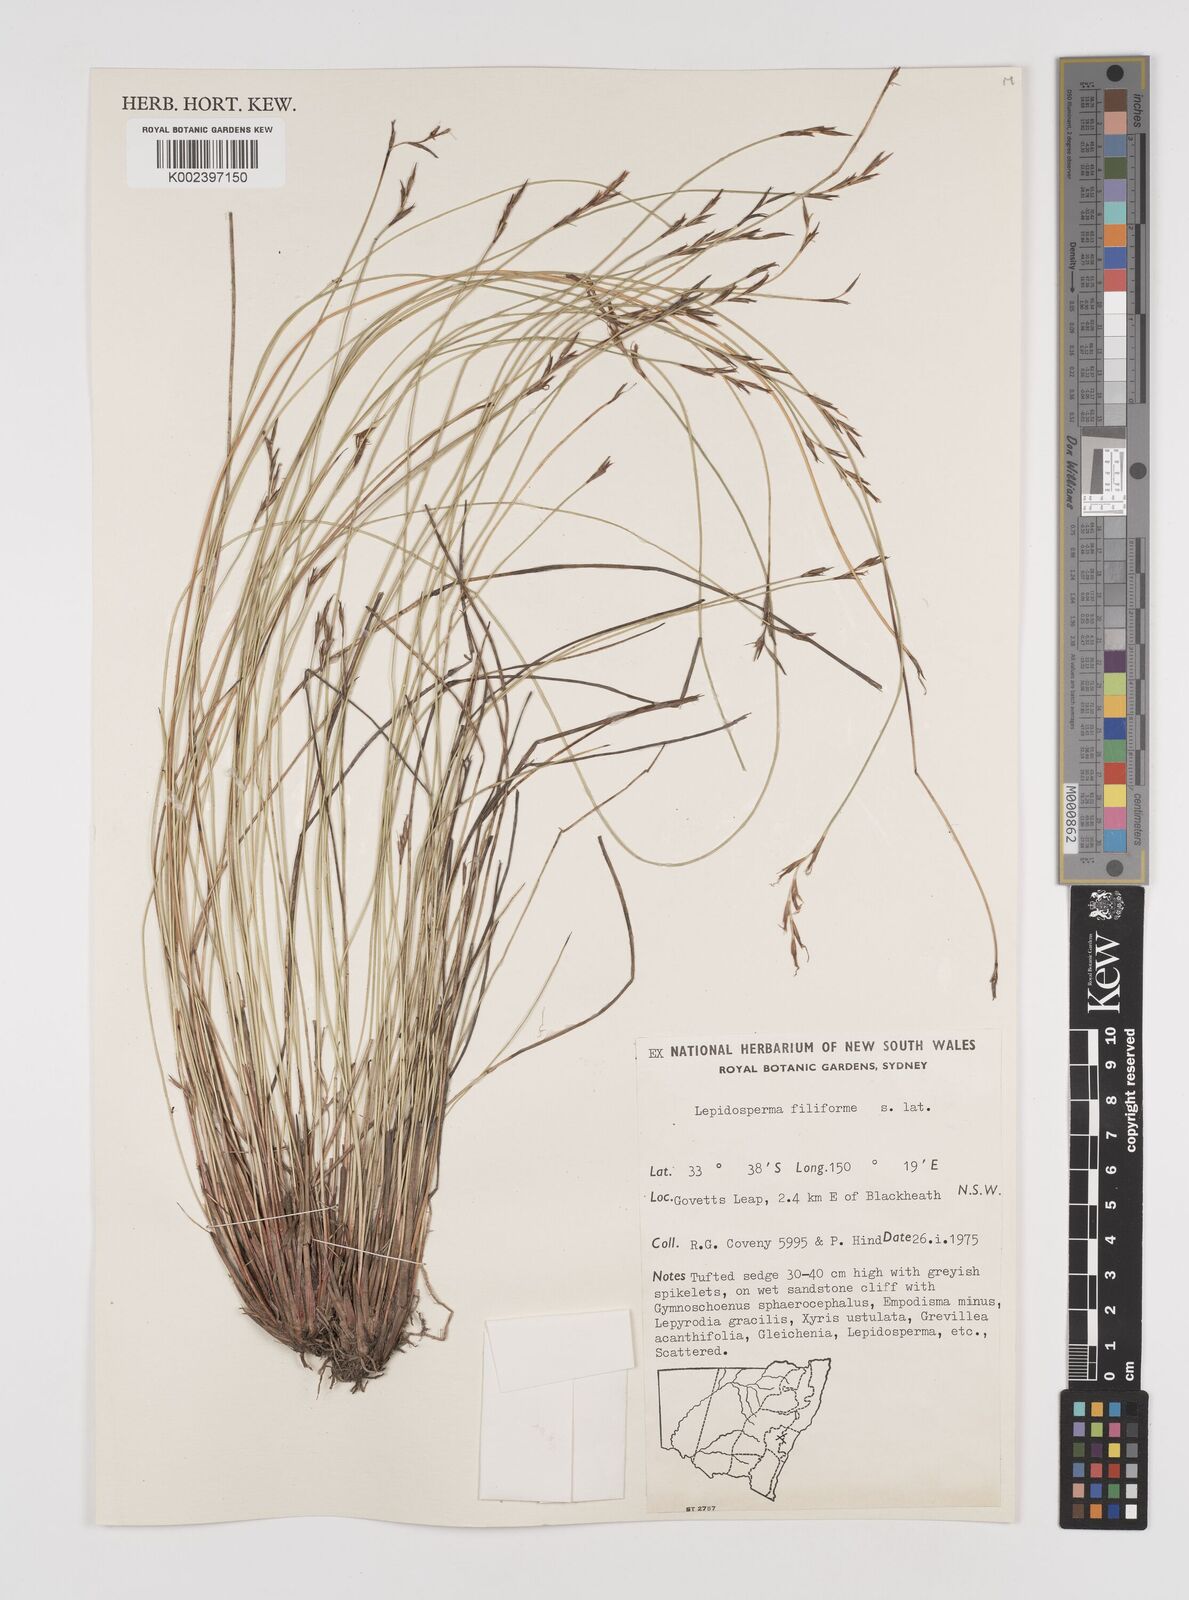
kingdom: Plantae
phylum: Tracheophyta
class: Liliopsida
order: Poales
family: Cyperaceae
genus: Lepidosperma
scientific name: Lepidosperma filiforme
